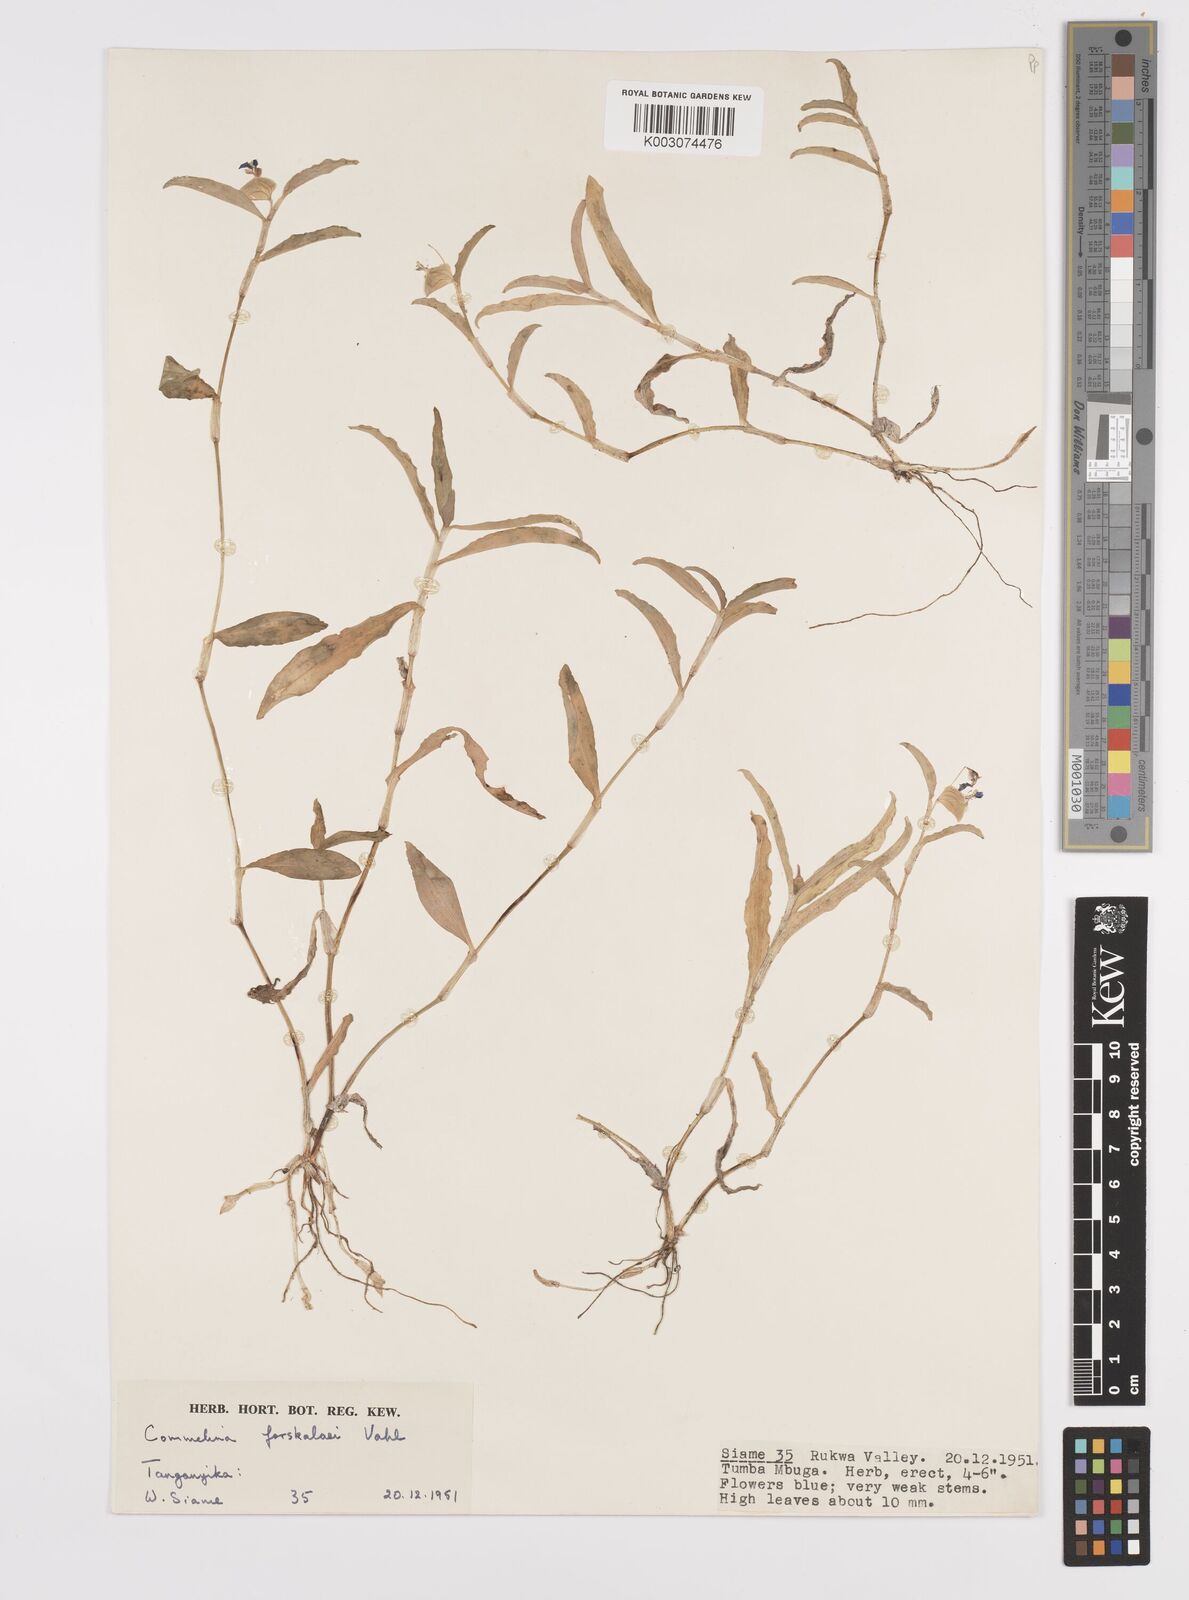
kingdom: Plantae
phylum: Tracheophyta
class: Liliopsida
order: Commelinales
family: Commelinaceae
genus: Commelina
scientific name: Commelina imberbis
